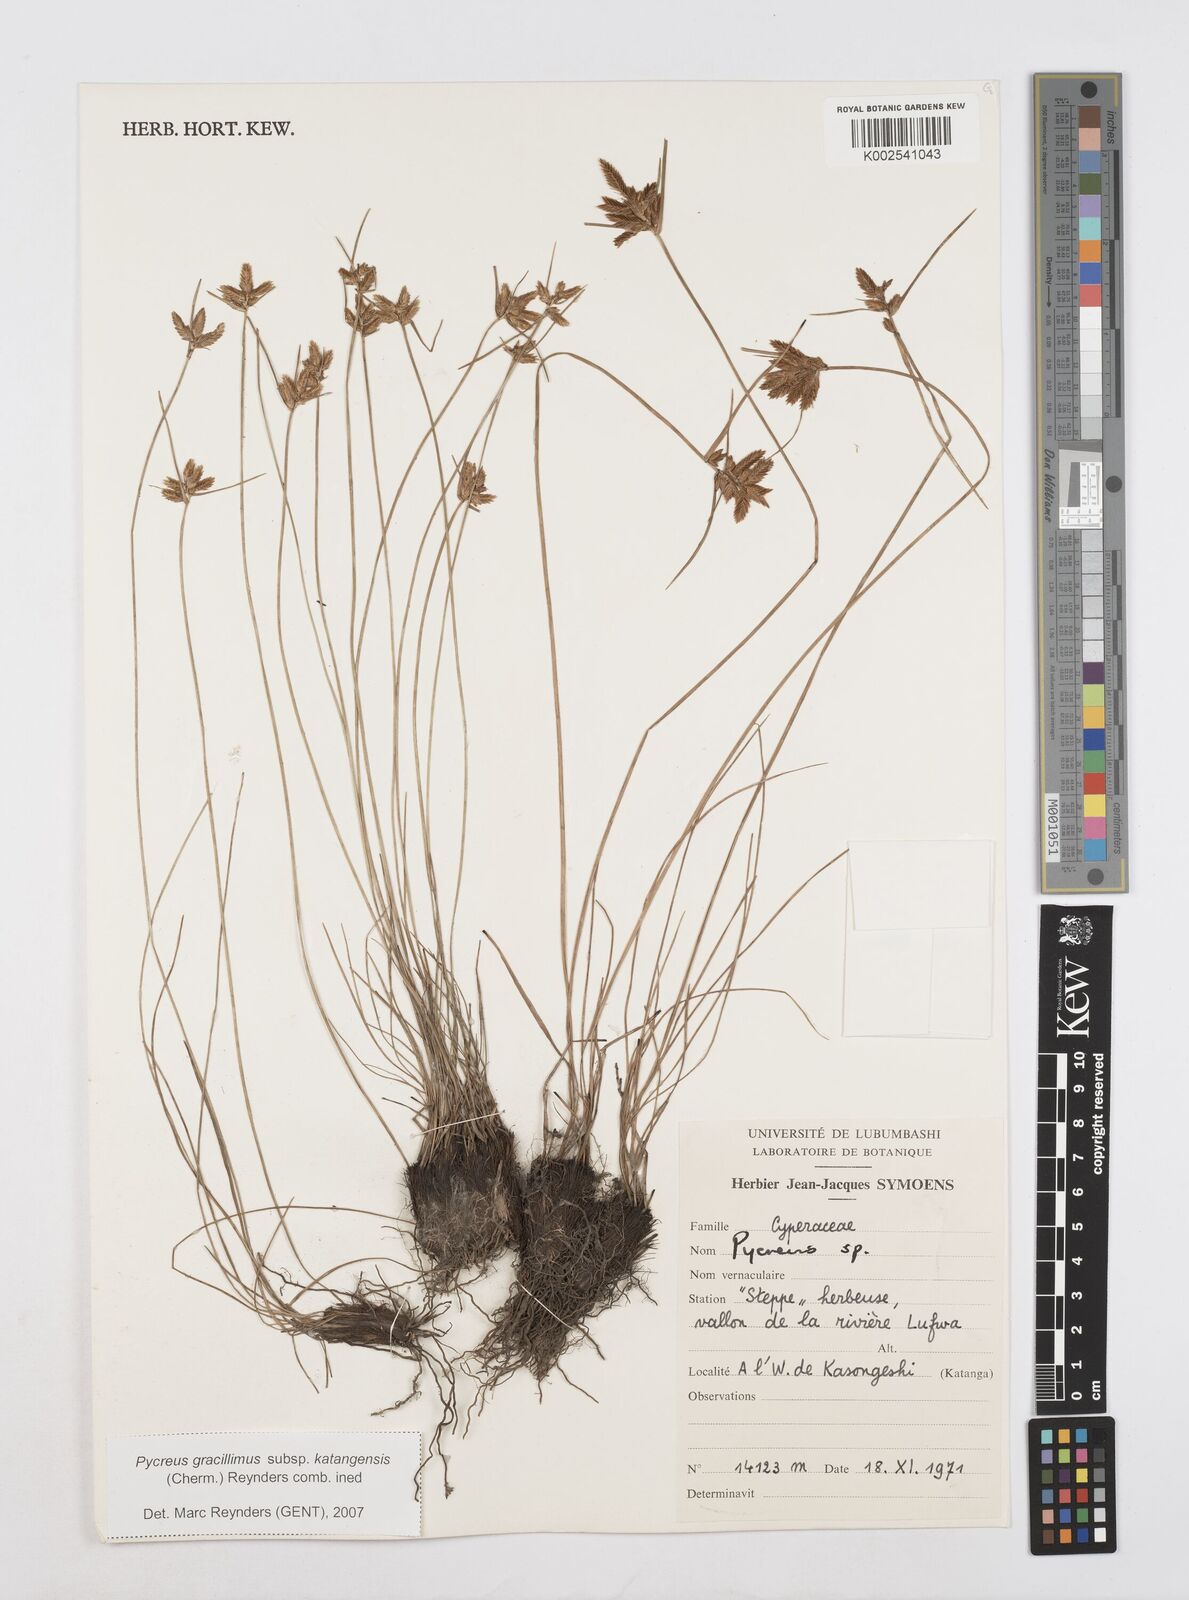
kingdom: Plantae
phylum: Tracheophyta
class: Liliopsida
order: Poales
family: Cyperaceae
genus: Cyperus
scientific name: Cyperus
